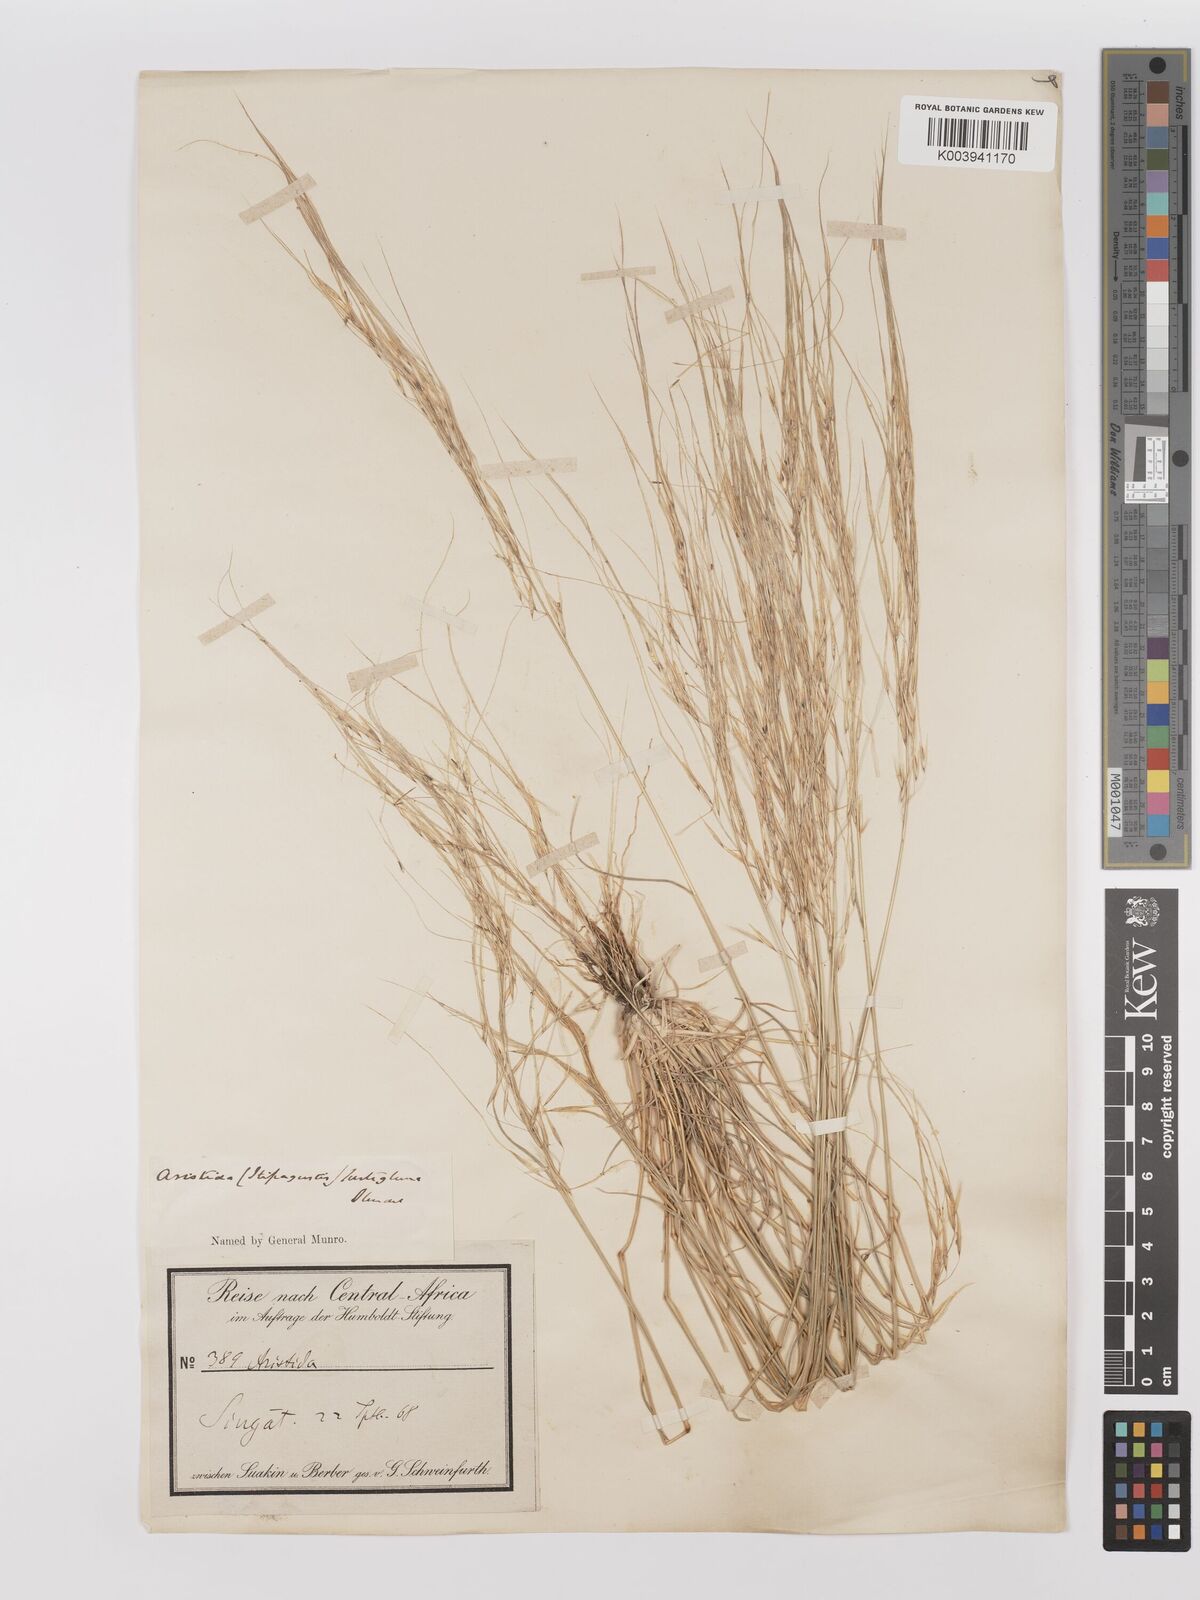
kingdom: Plantae
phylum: Tracheophyta
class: Liliopsida
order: Poales
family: Poaceae
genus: Stipagrostis
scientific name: Stipagrostis hirtigluma
